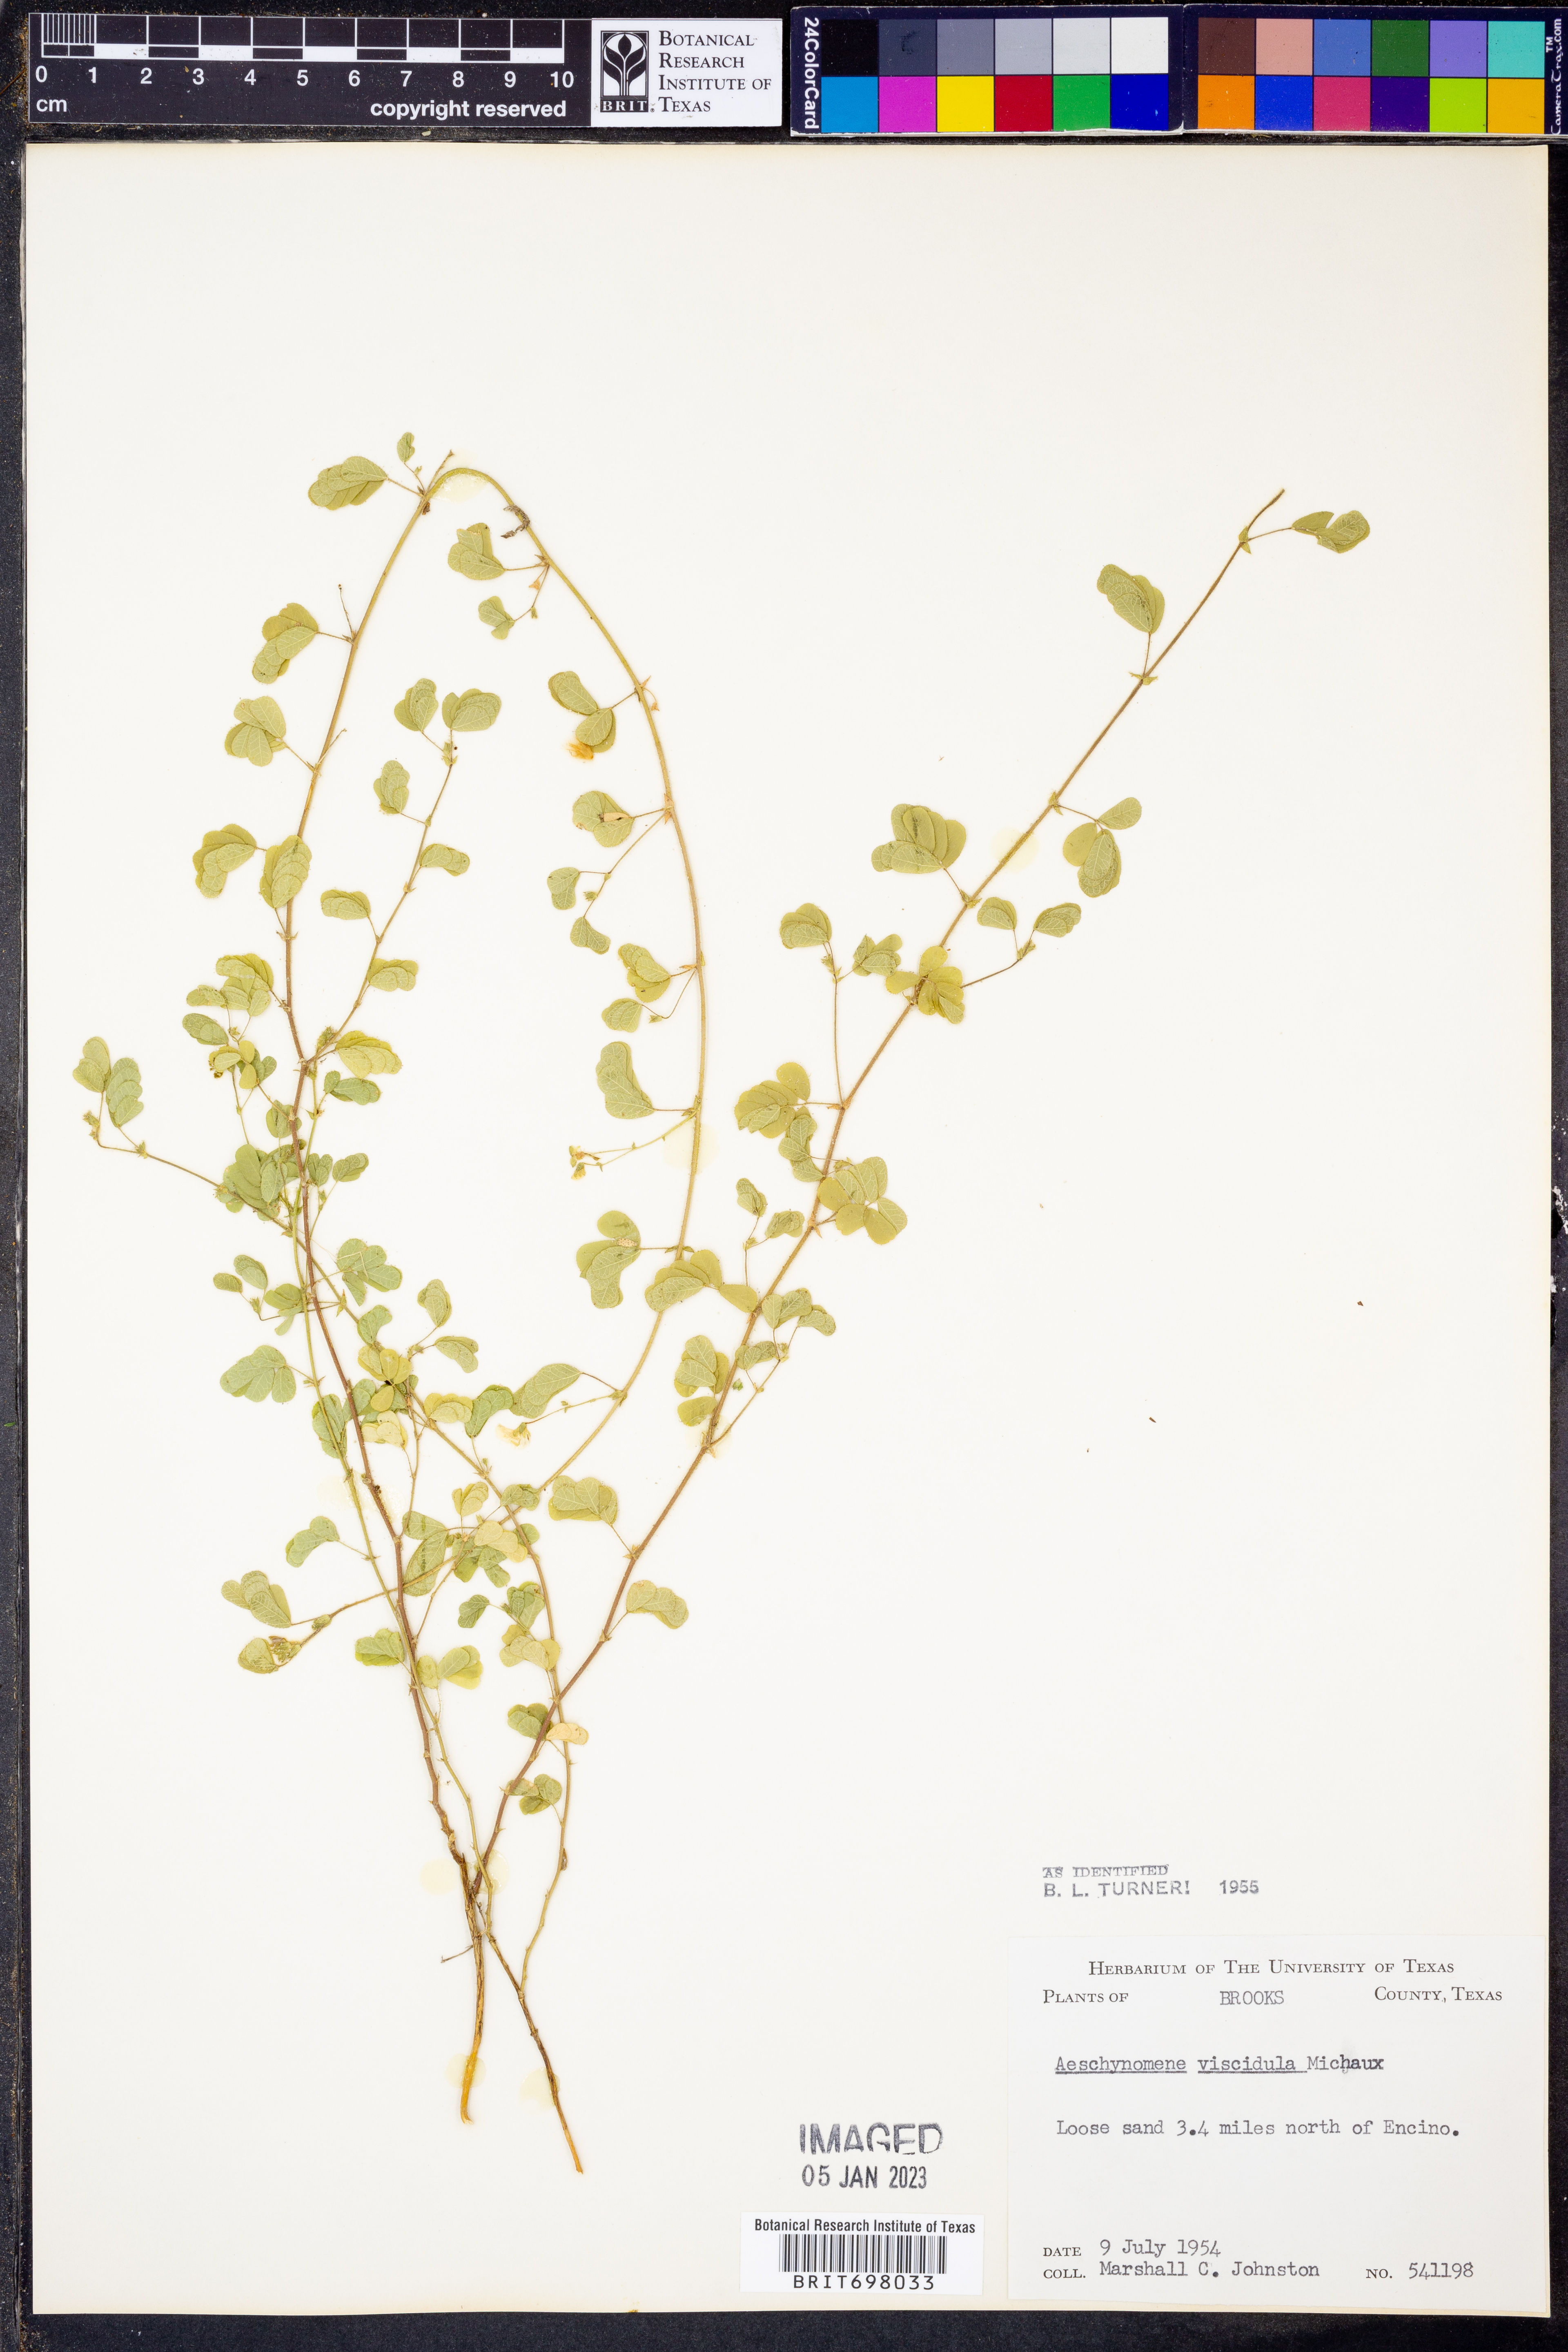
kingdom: Plantae
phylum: Tracheophyta
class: Magnoliopsida
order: Fabales
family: Fabaceae
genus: Aeschynomene
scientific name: Aeschynomene indica
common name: Indian jointvetch
